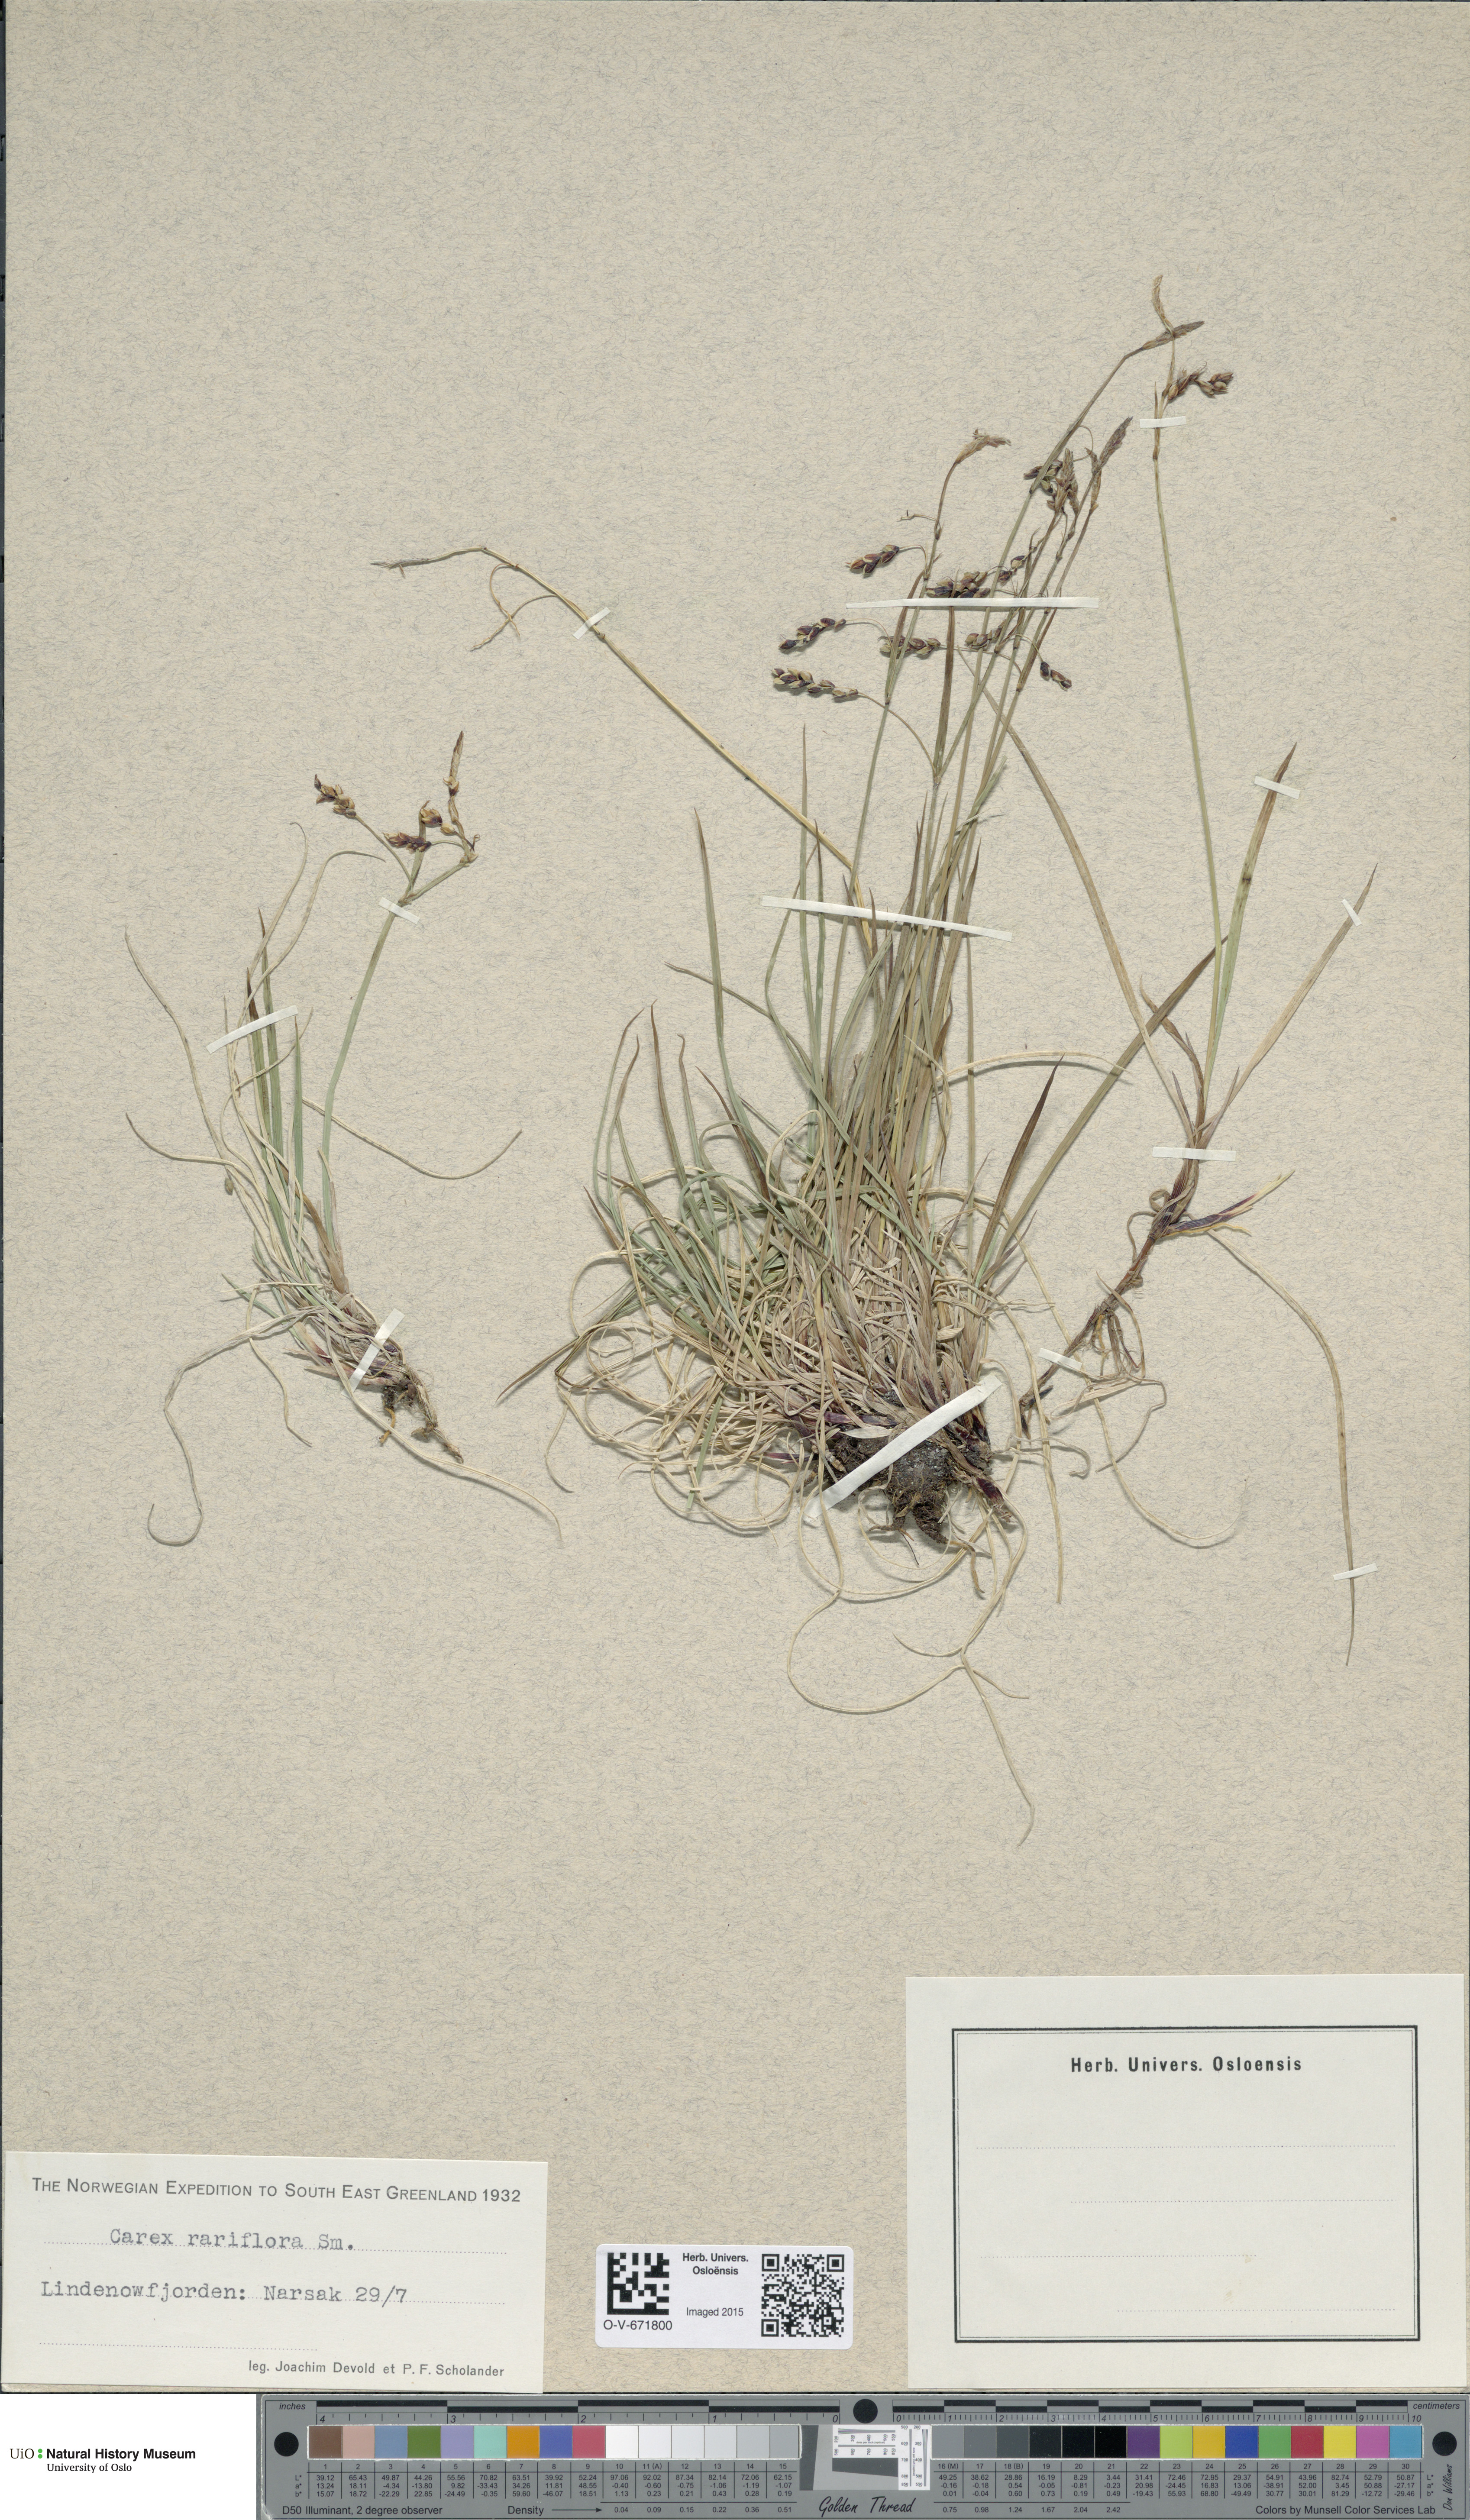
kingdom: Plantae
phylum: Tracheophyta
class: Liliopsida
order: Poales
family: Cyperaceae
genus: Carex
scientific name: Carex rariflora
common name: Loose-flowered alpine sedge
